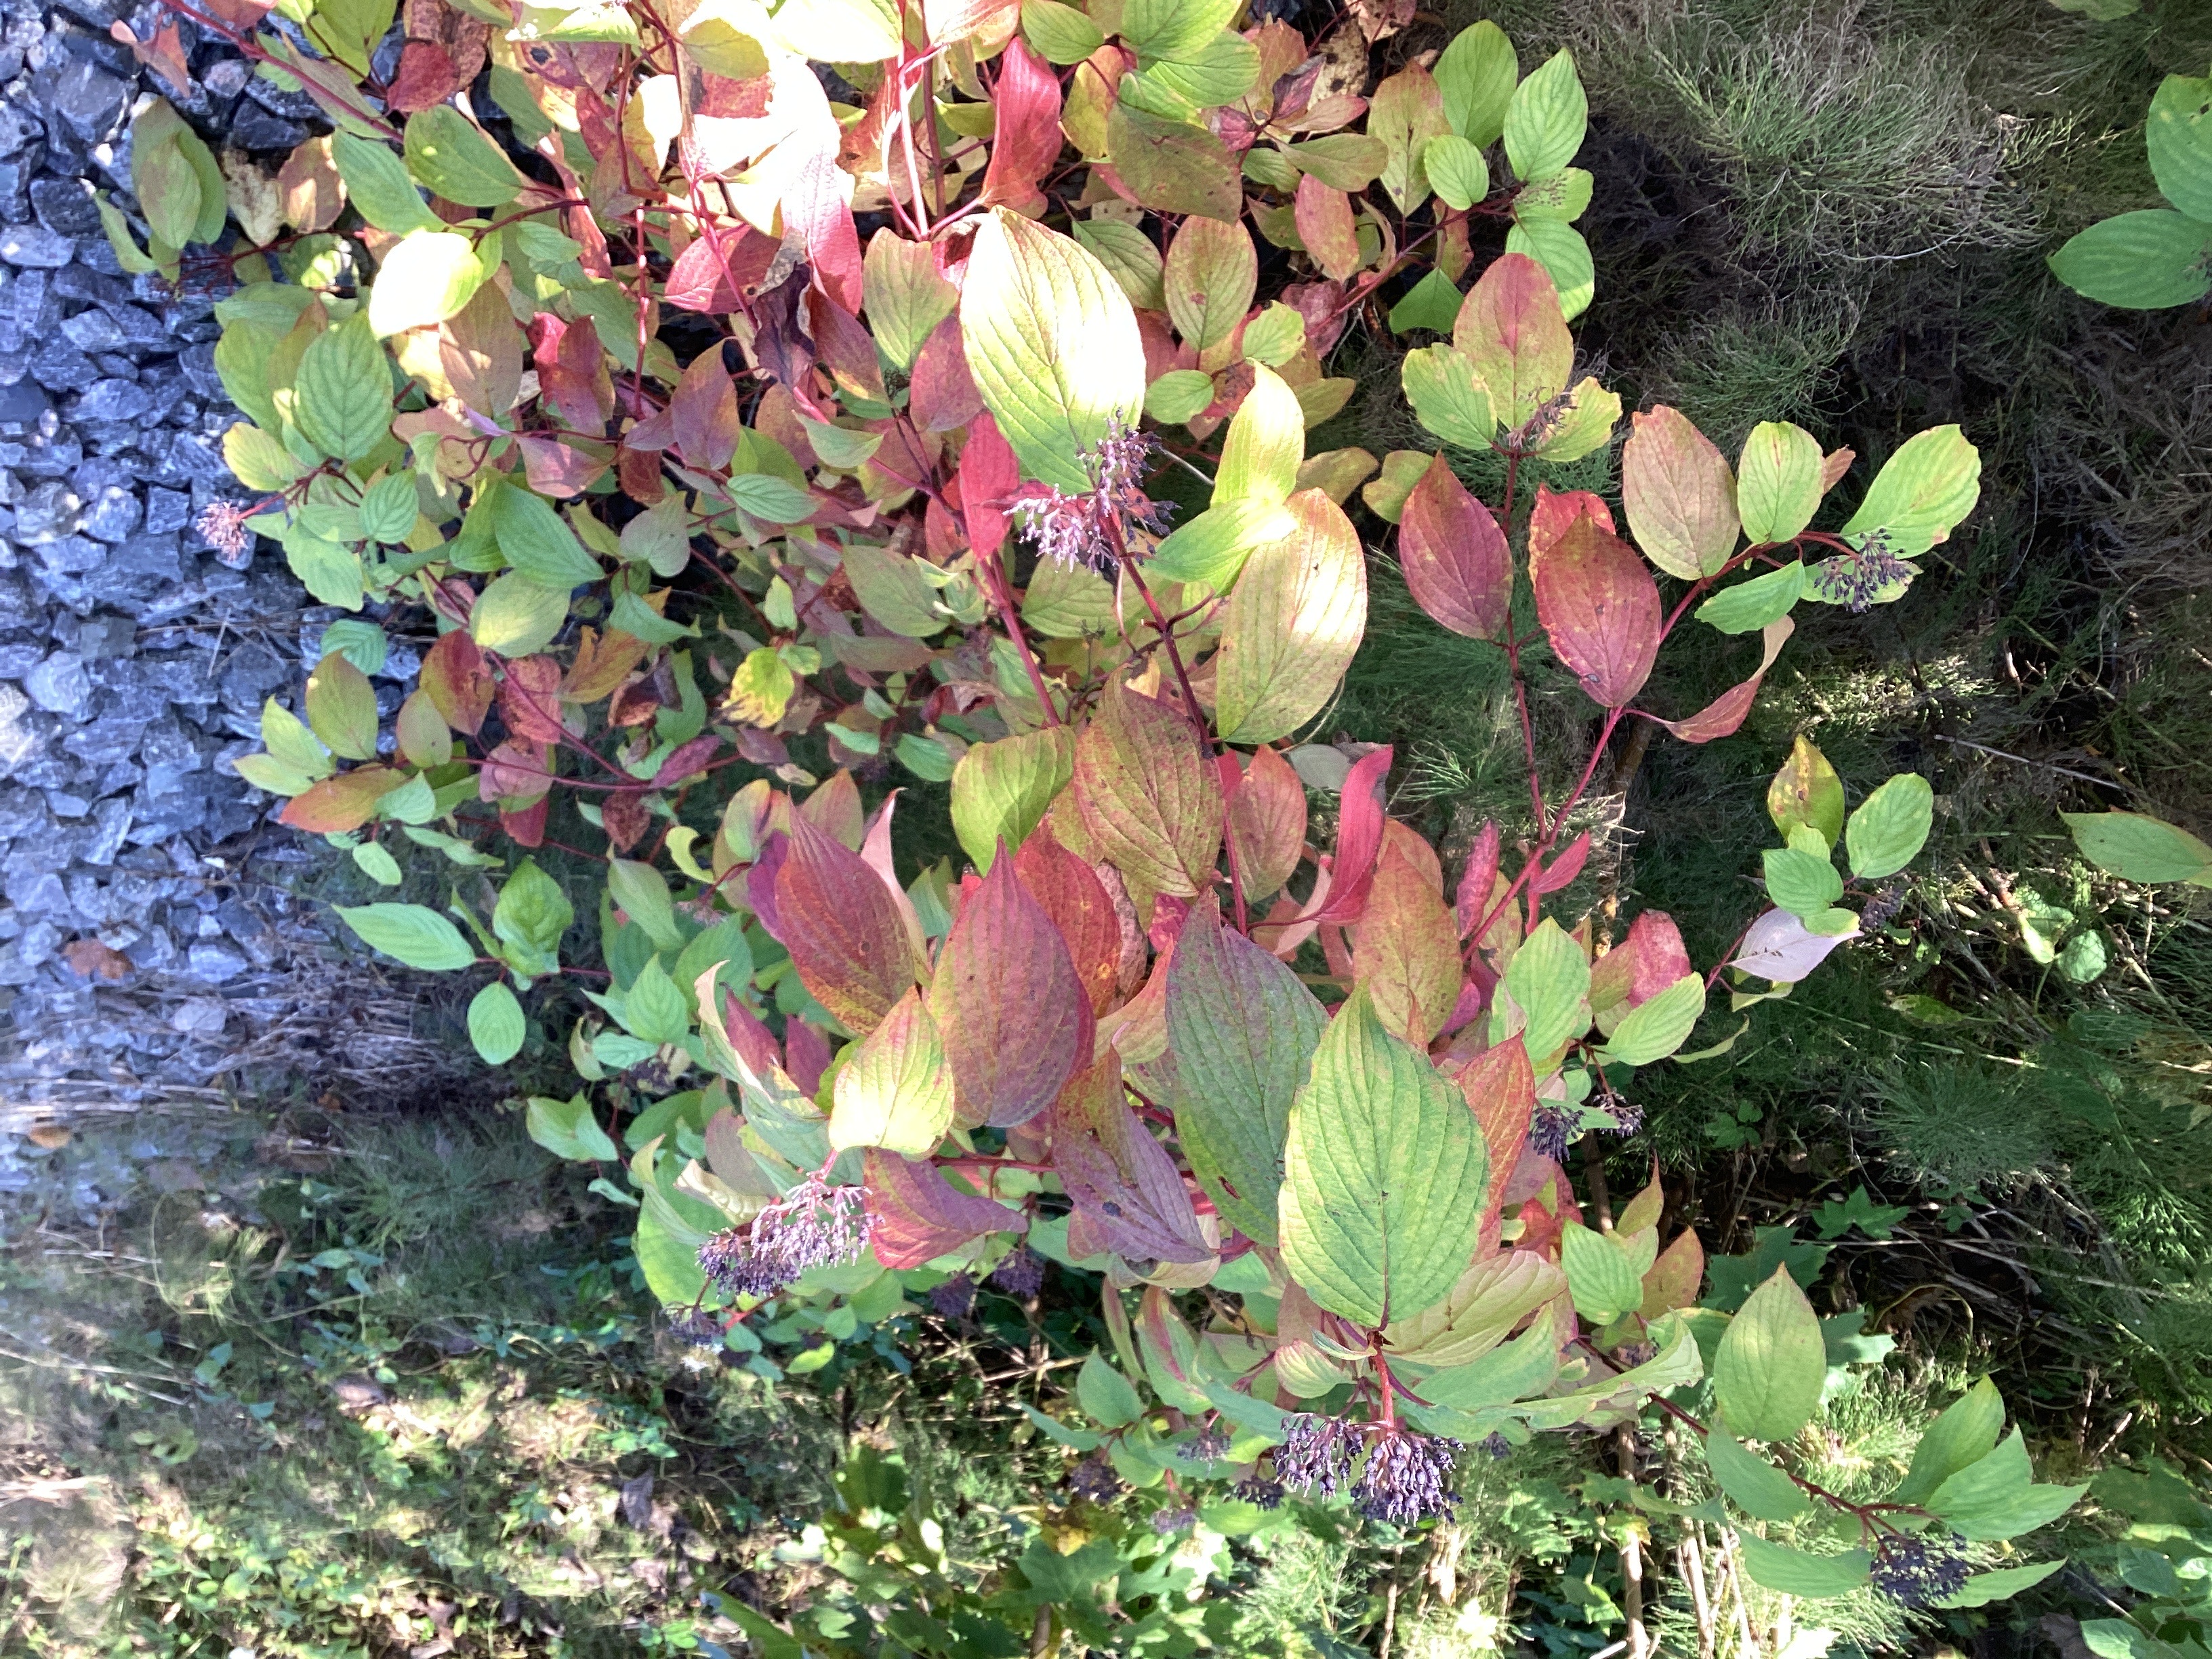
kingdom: Plantae
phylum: Tracheophyta
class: Magnoliopsida
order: Cornales
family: Cornaceae
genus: Cornus
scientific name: Cornus alba
